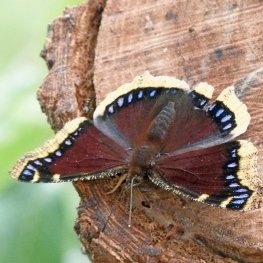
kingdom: Animalia
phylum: Arthropoda
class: Insecta
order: Lepidoptera
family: Nymphalidae
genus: Nymphalis
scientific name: Nymphalis antiopa
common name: Mourning Cloak
